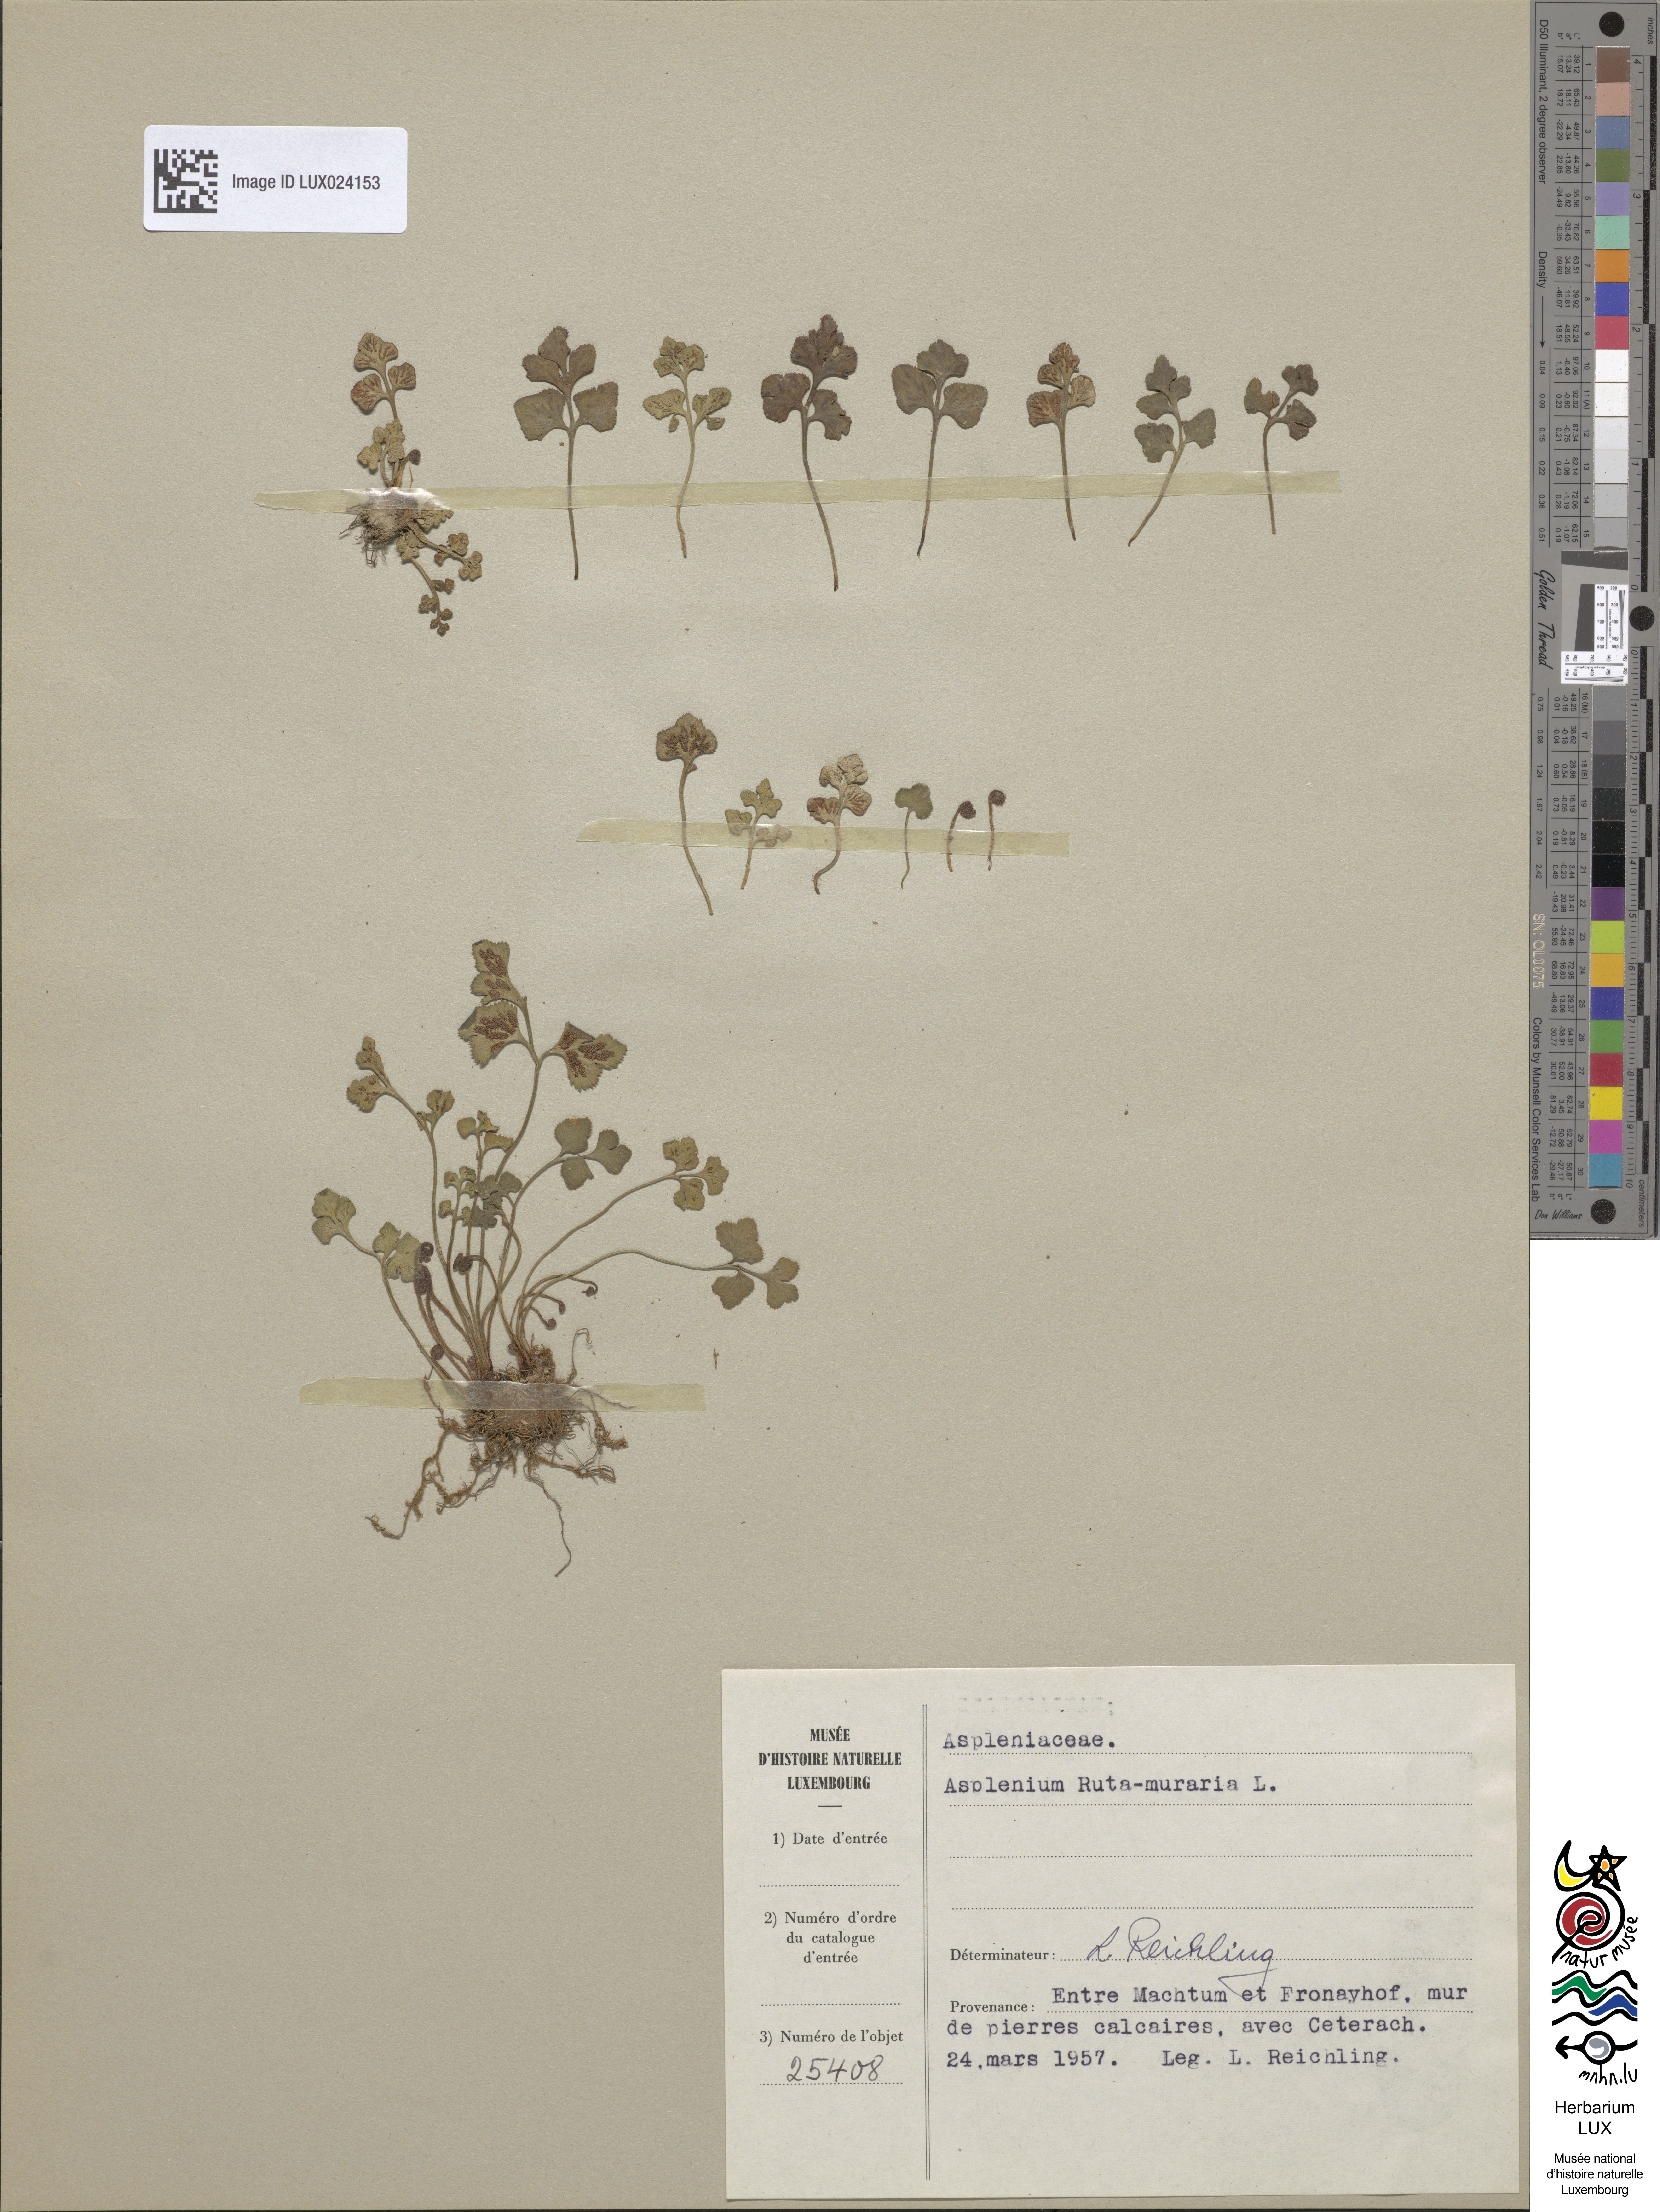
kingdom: Plantae
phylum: Tracheophyta
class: Polypodiopsida
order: Polypodiales
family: Aspleniaceae
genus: Asplenium
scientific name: Asplenium ruta-muraria
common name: Wall-rue
